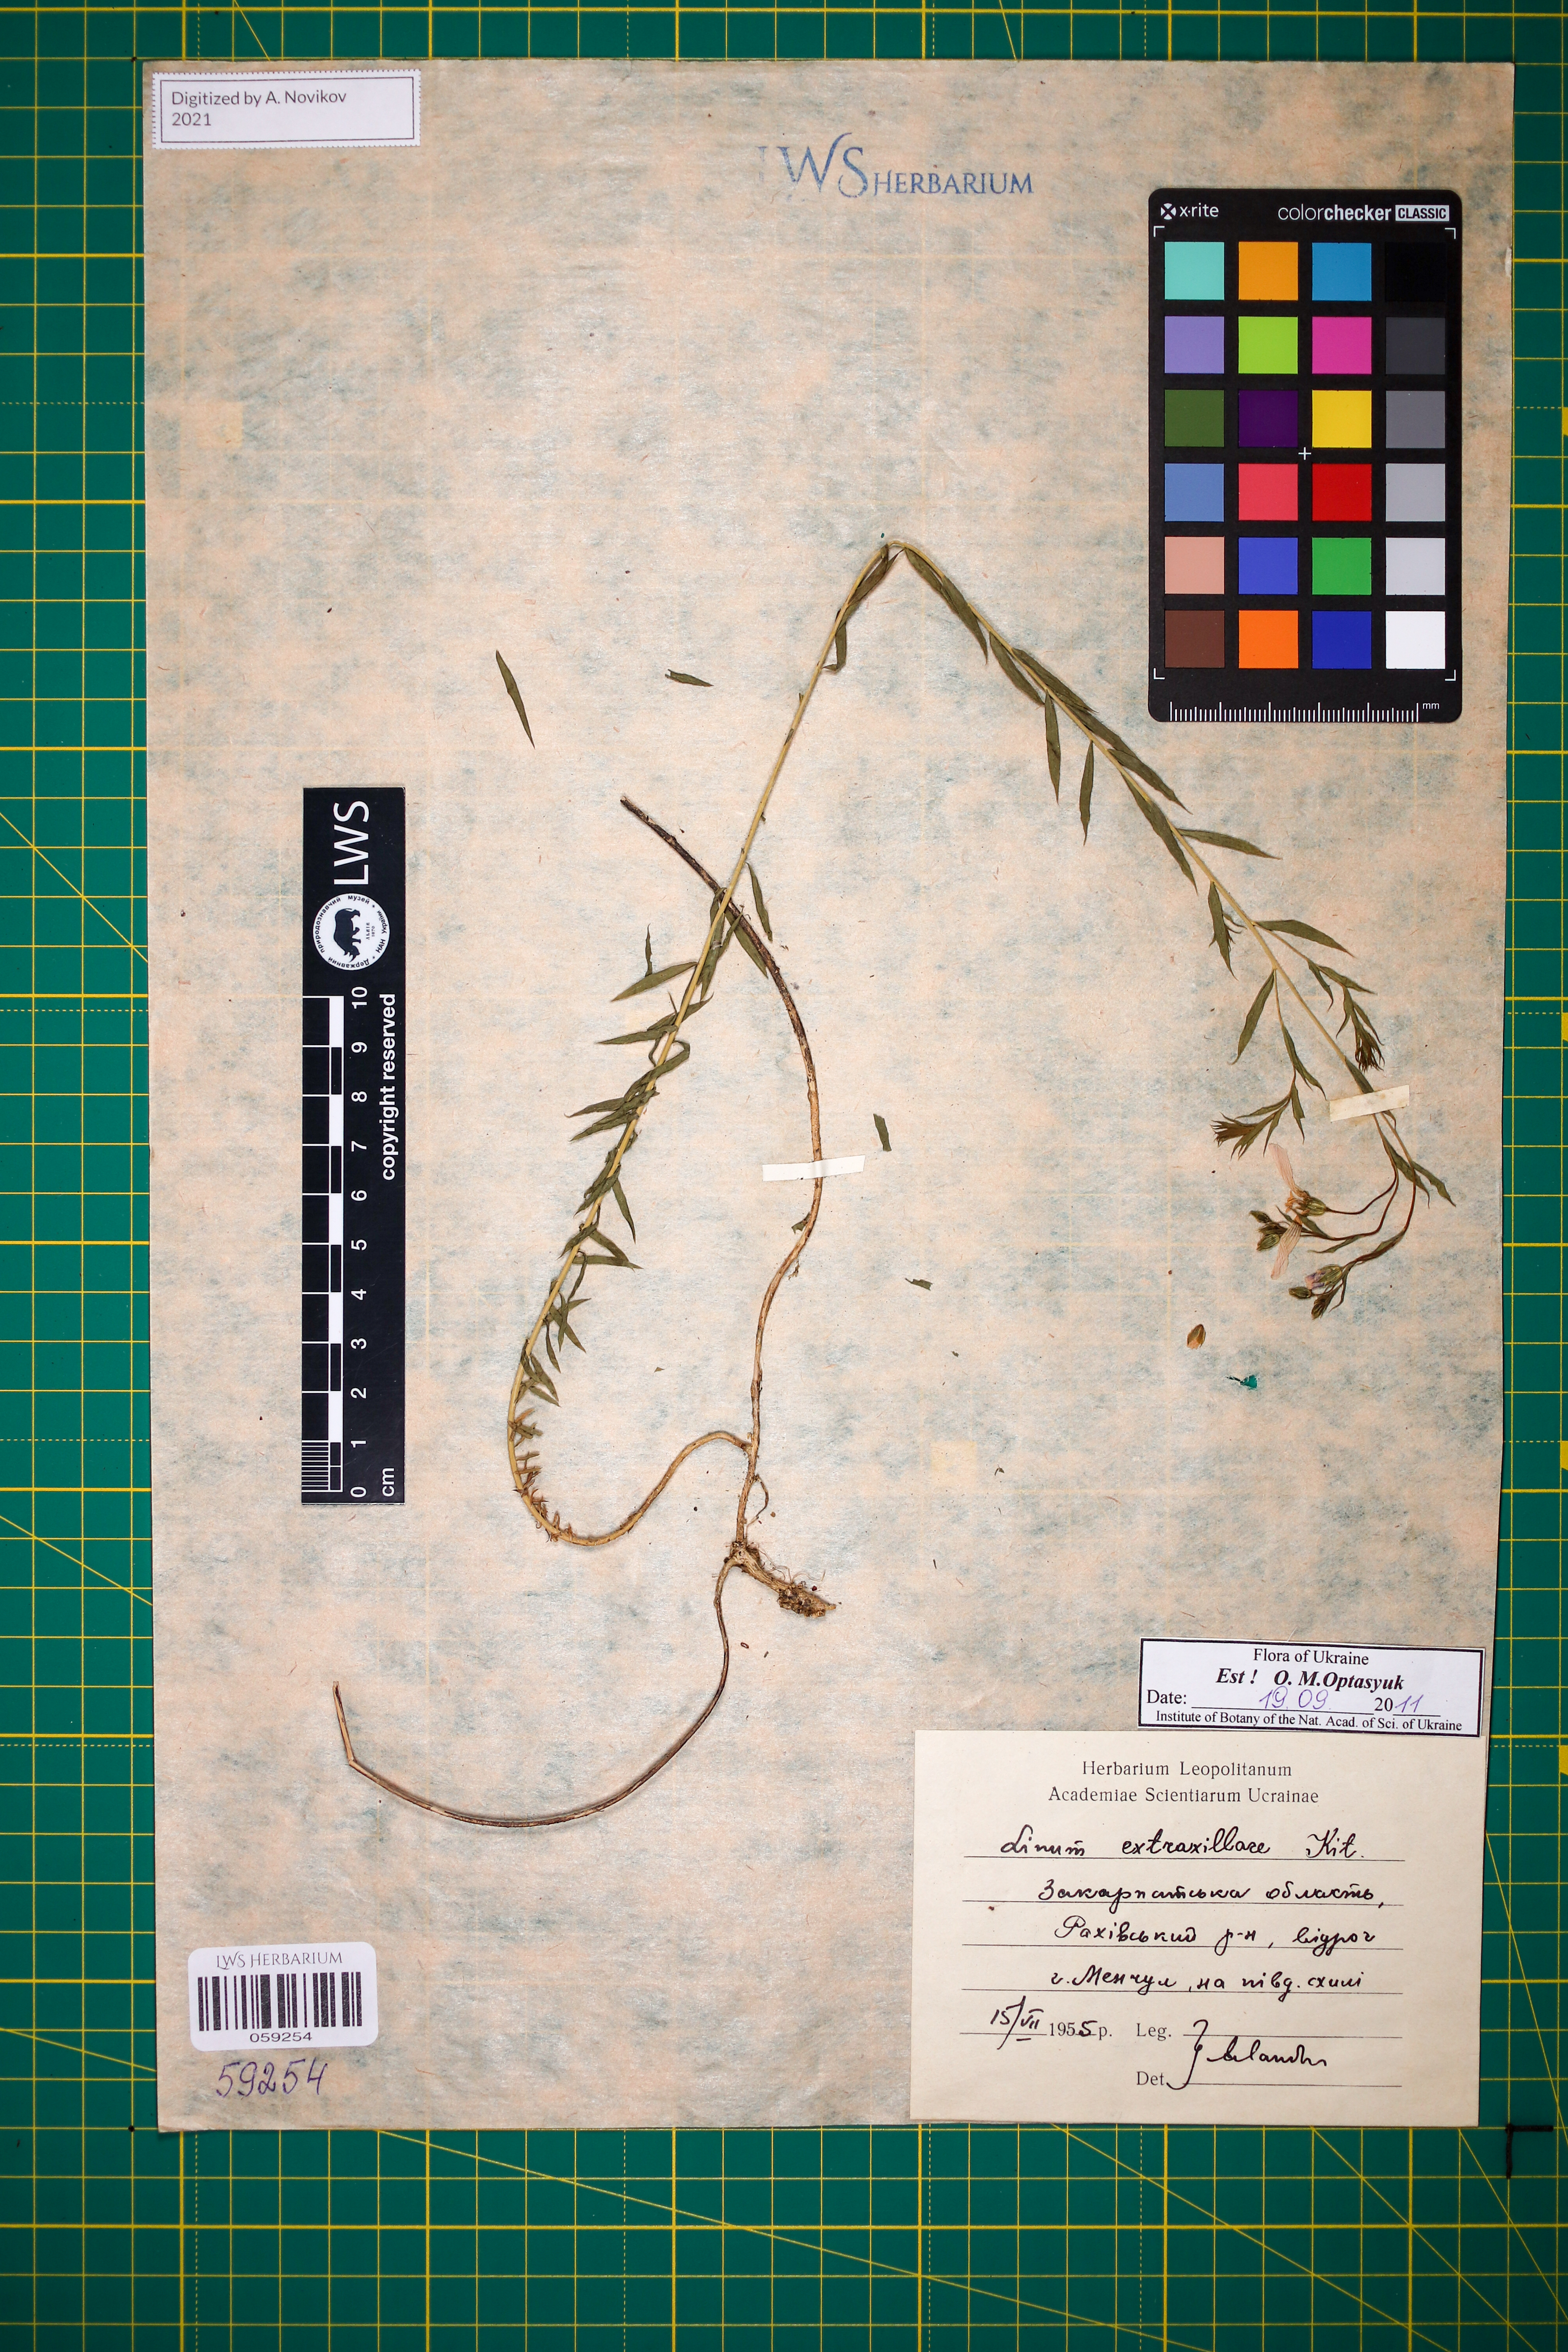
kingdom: Plantae
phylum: Tracheophyta
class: Magnoliopsida
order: Malpighiales
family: Linaceae
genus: Linum
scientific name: Linum perenne
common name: Blue flax
